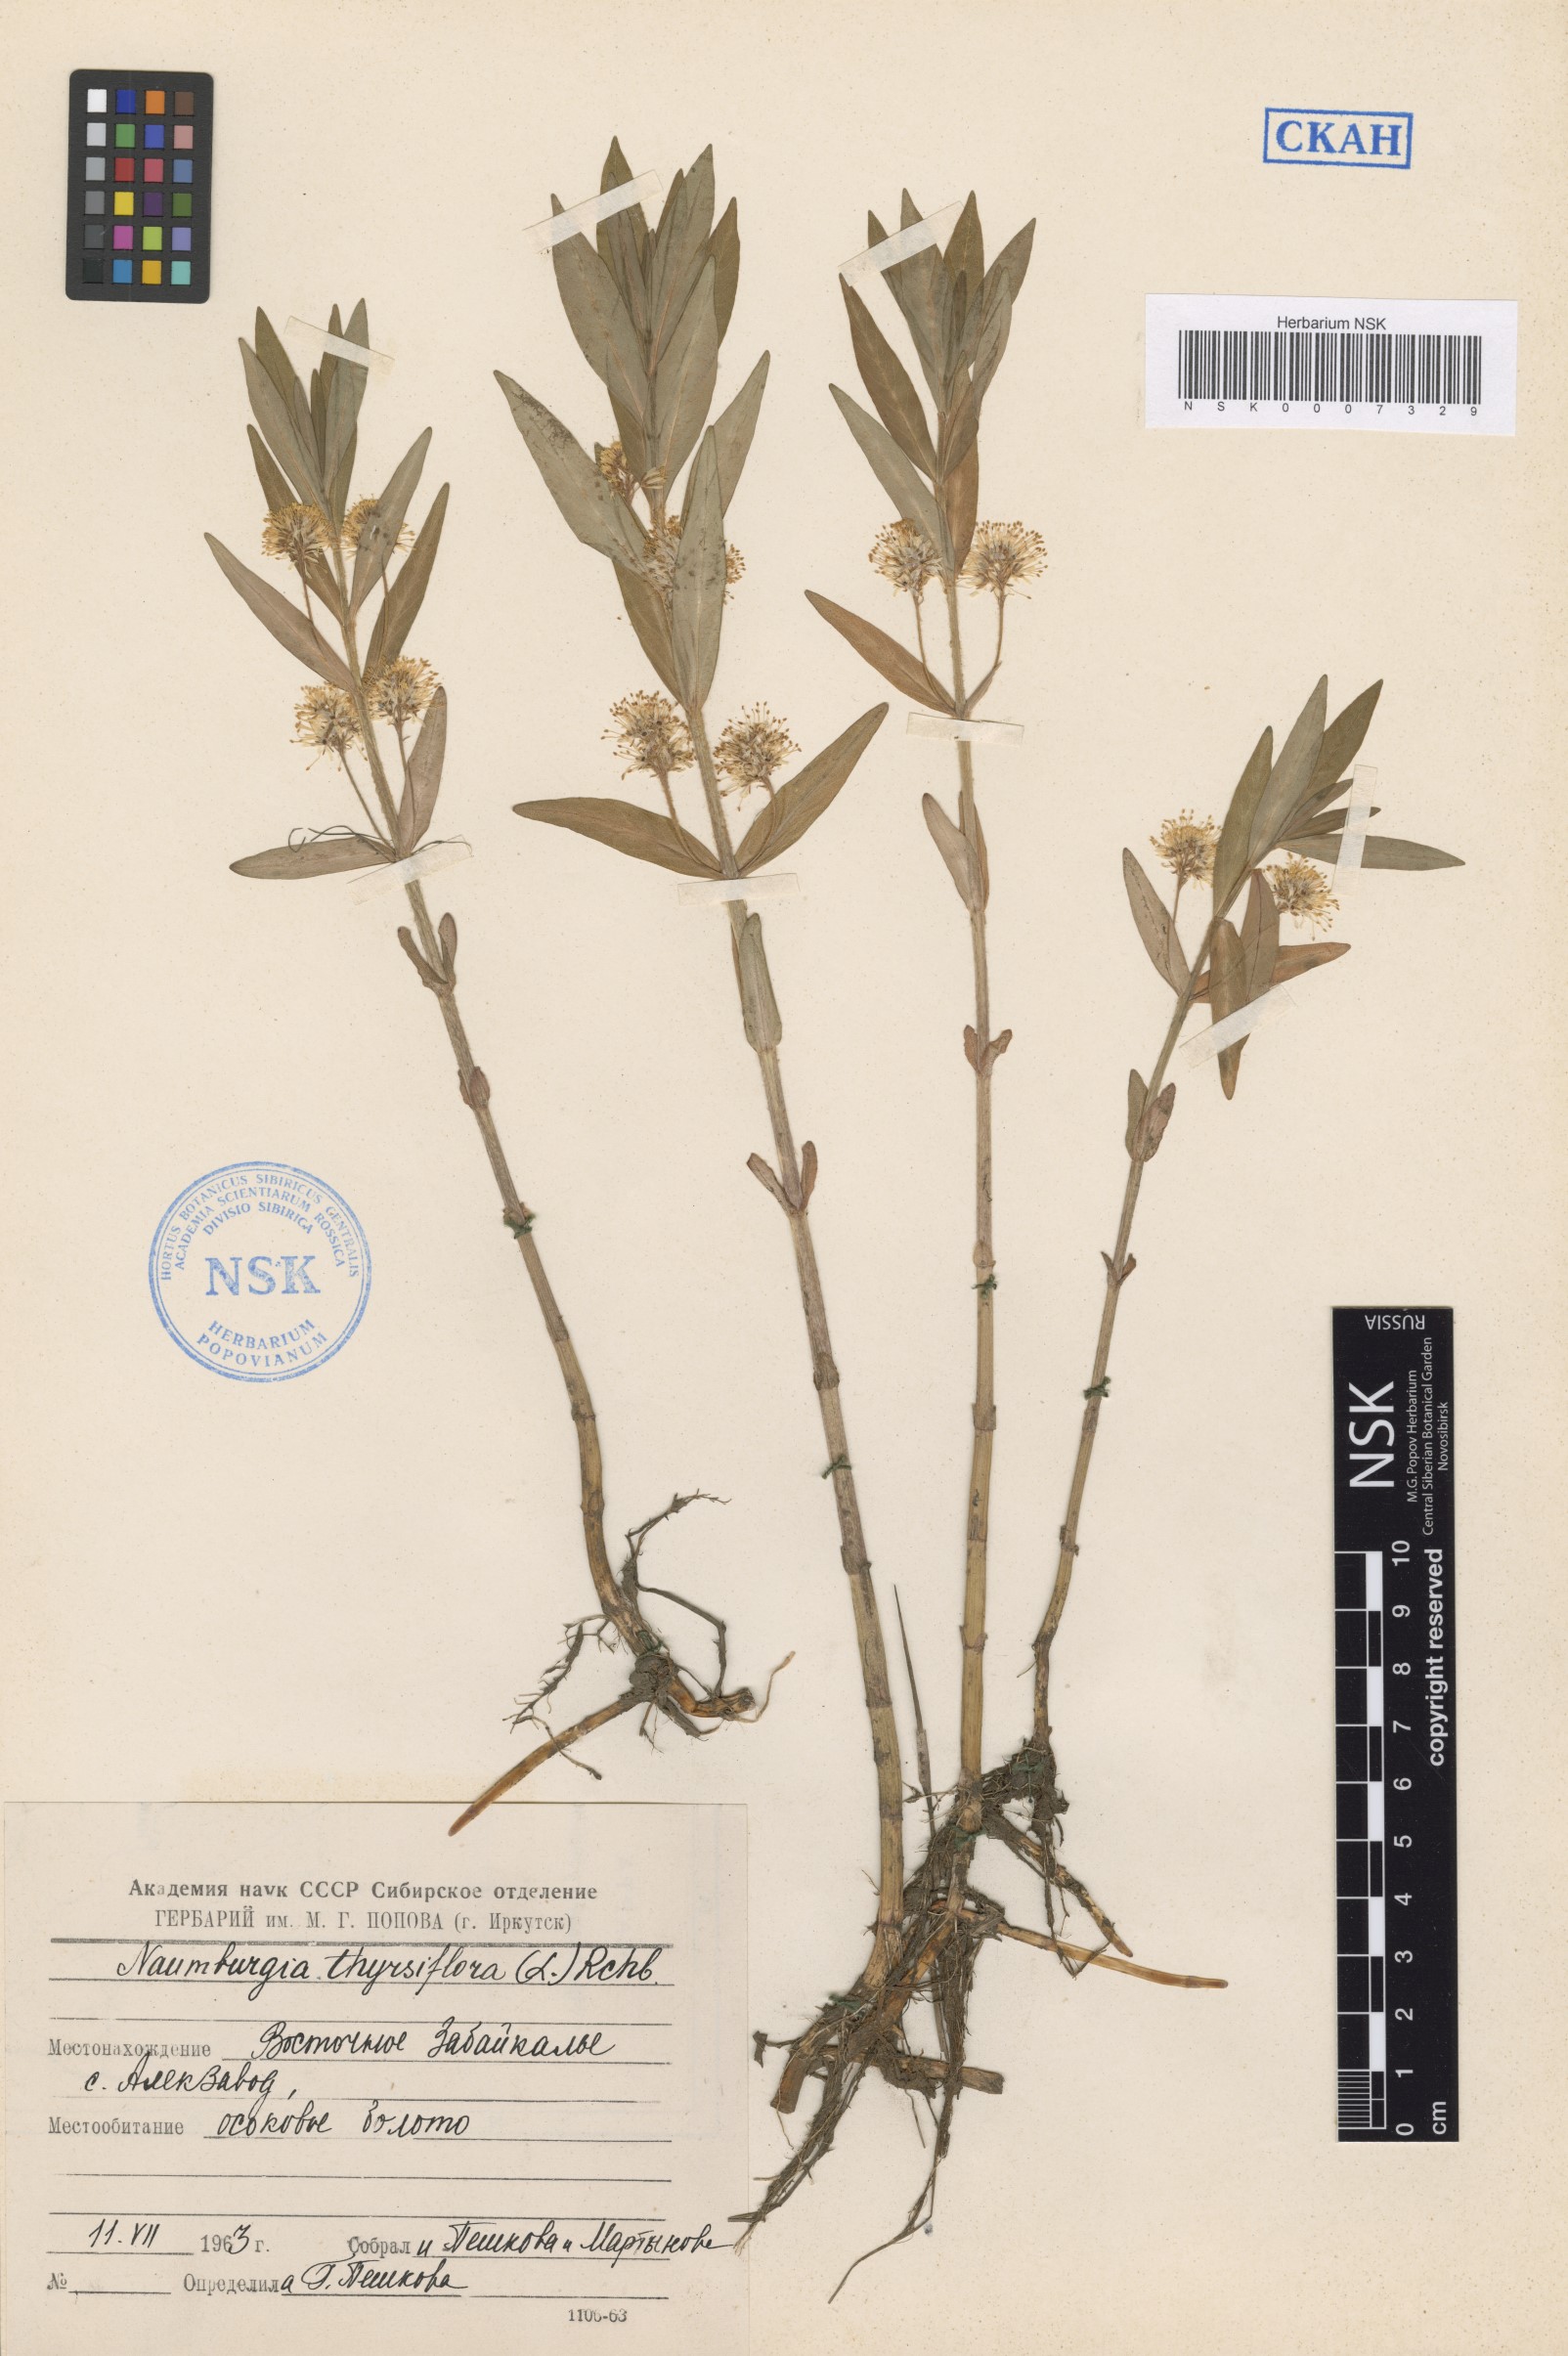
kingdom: Plantae
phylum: Tracheophyta
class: Magnoliopsida
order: Ericales
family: Primulaceae
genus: Lysimachia
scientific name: Lysimachia thyrsiflora
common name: Tufted loosestrife
